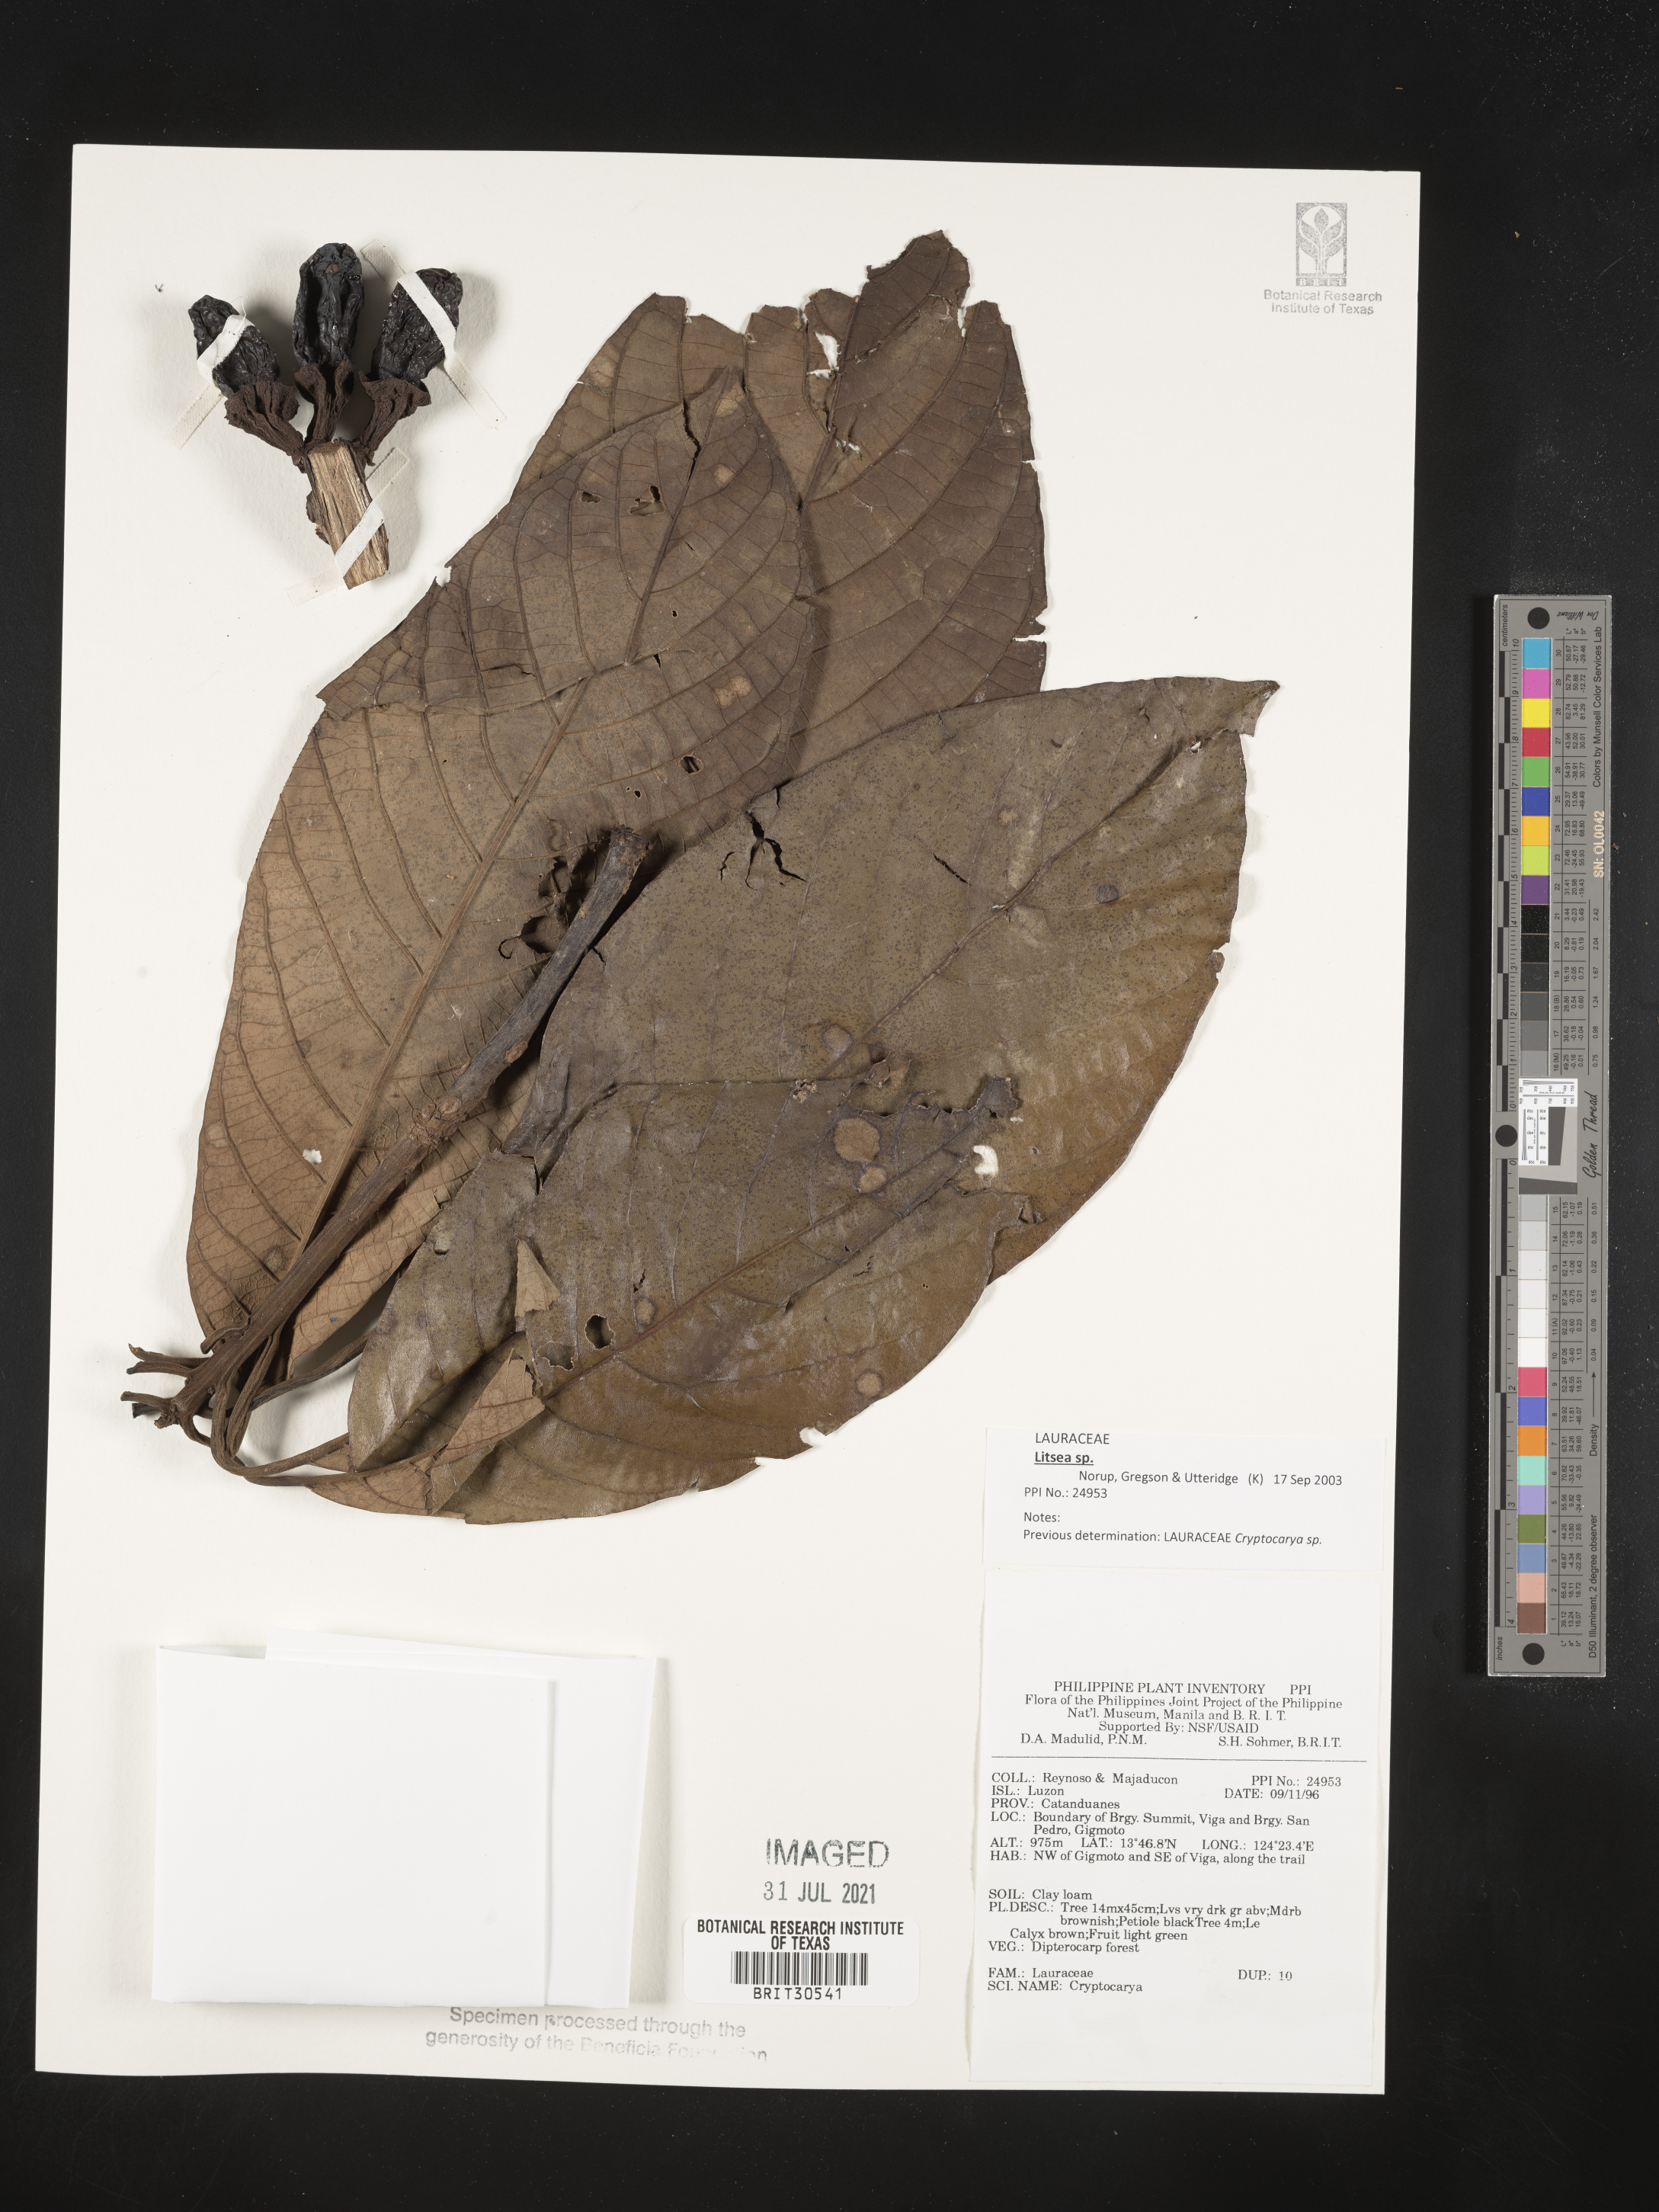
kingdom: Plantae
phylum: Tracheophyta
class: Magnoliopsida
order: Laurales
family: Lauraceae
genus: Cryptocarya
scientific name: Cryptocarya
